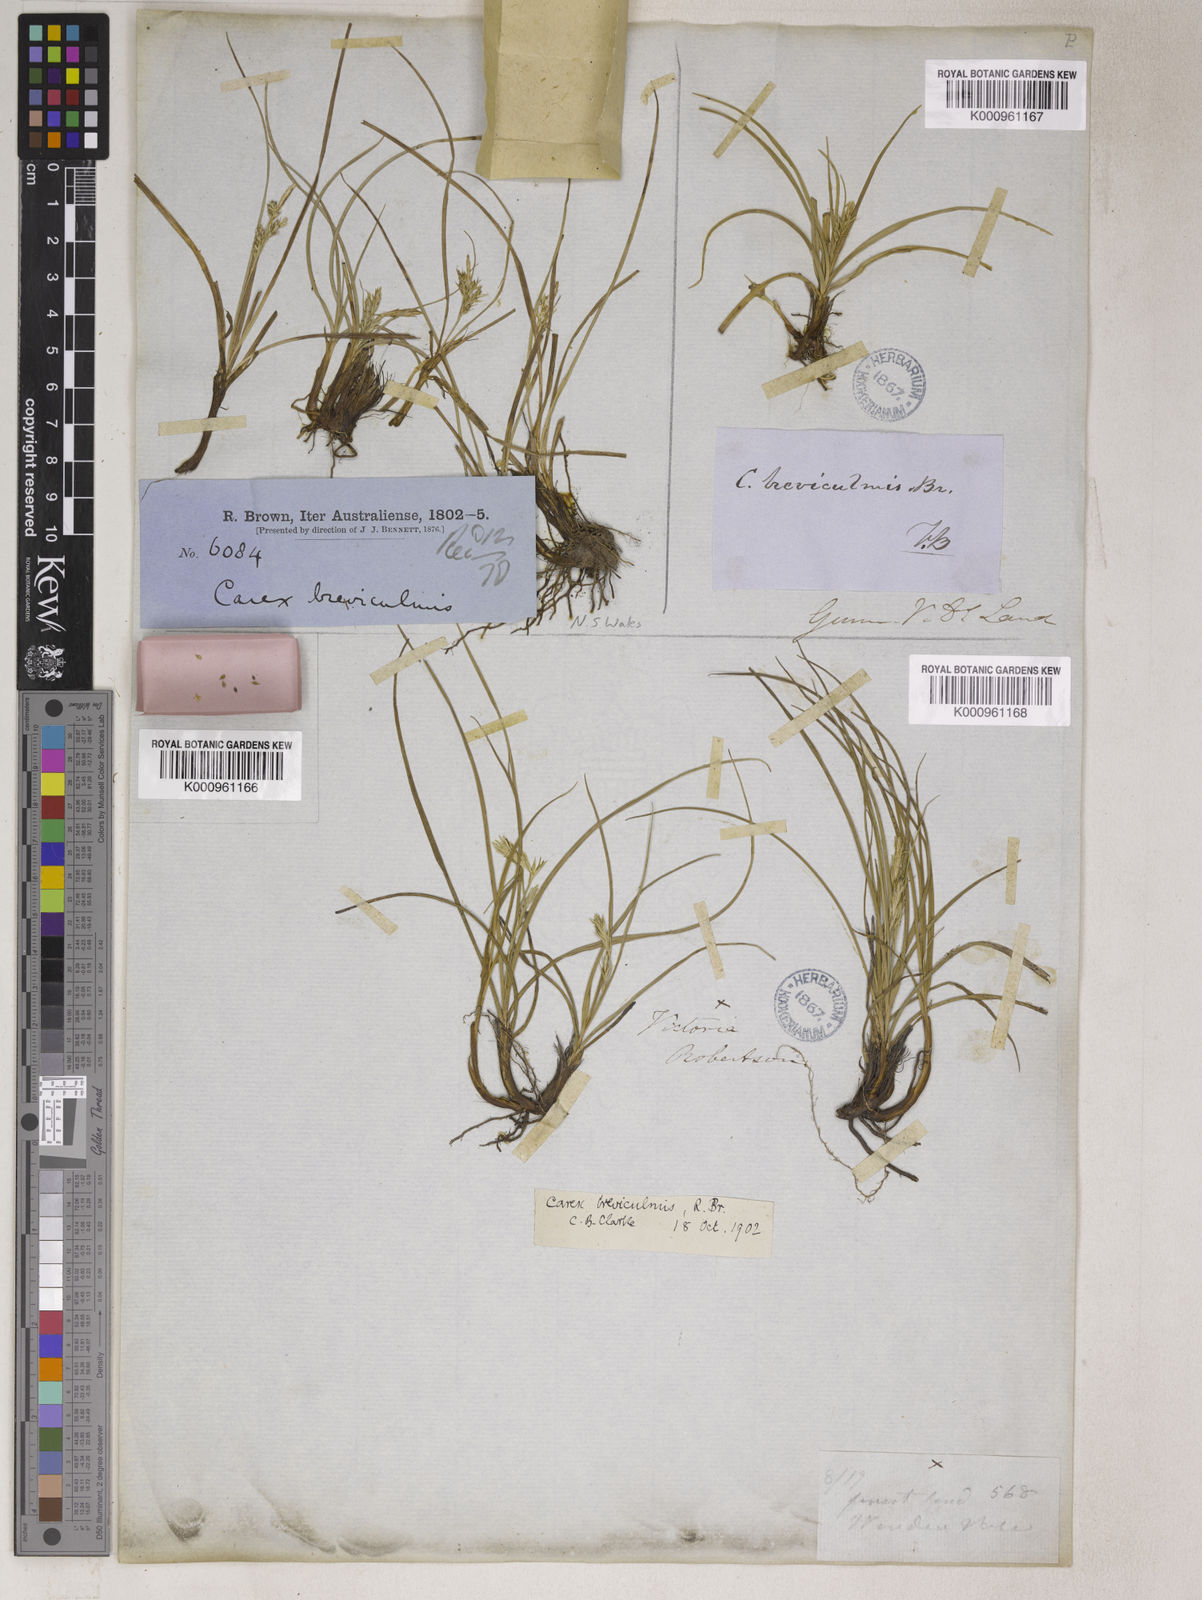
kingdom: Plantae
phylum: Tracheophyta
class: Liliopsida
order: Poales
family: Cyperaceae
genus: Carex
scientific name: Carex breviculmis
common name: Asian shortstem sedge
